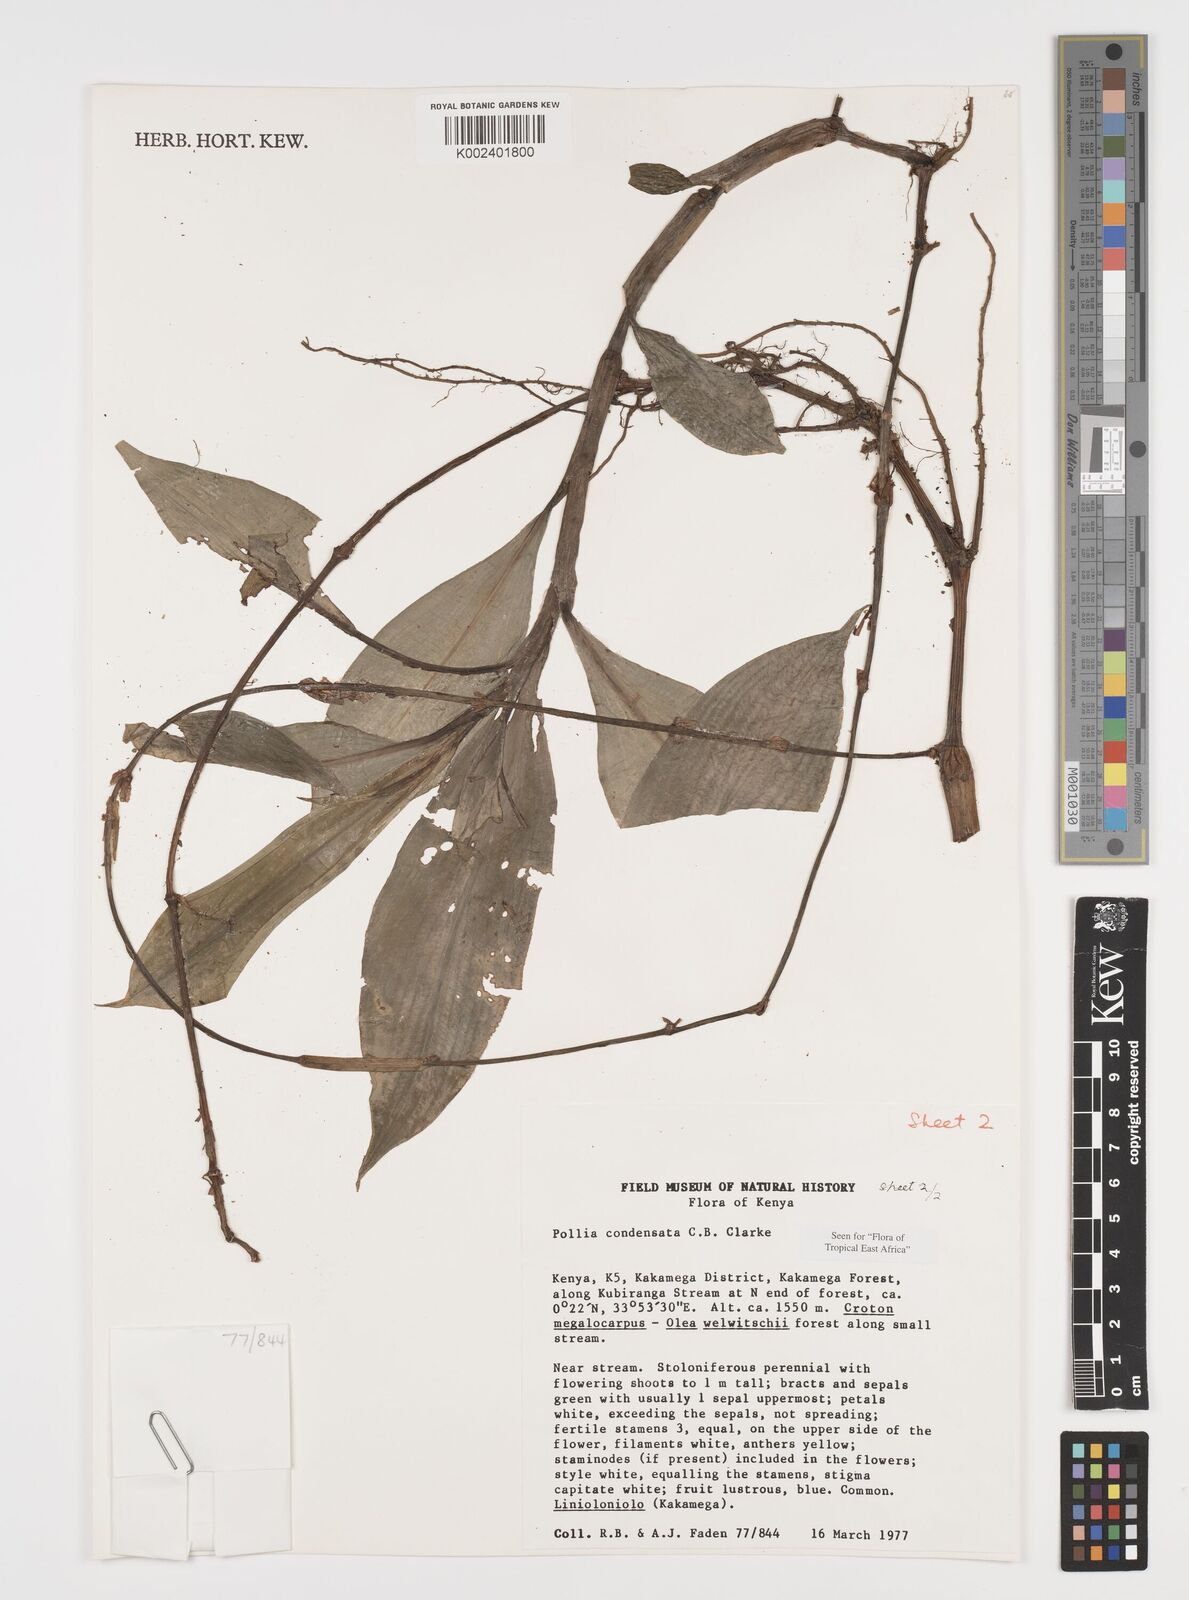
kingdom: Plantae
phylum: Tracheophyta
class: Liliopsida
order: Commelinales
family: Commelinaceae
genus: Pollia
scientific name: Pollia condensata
